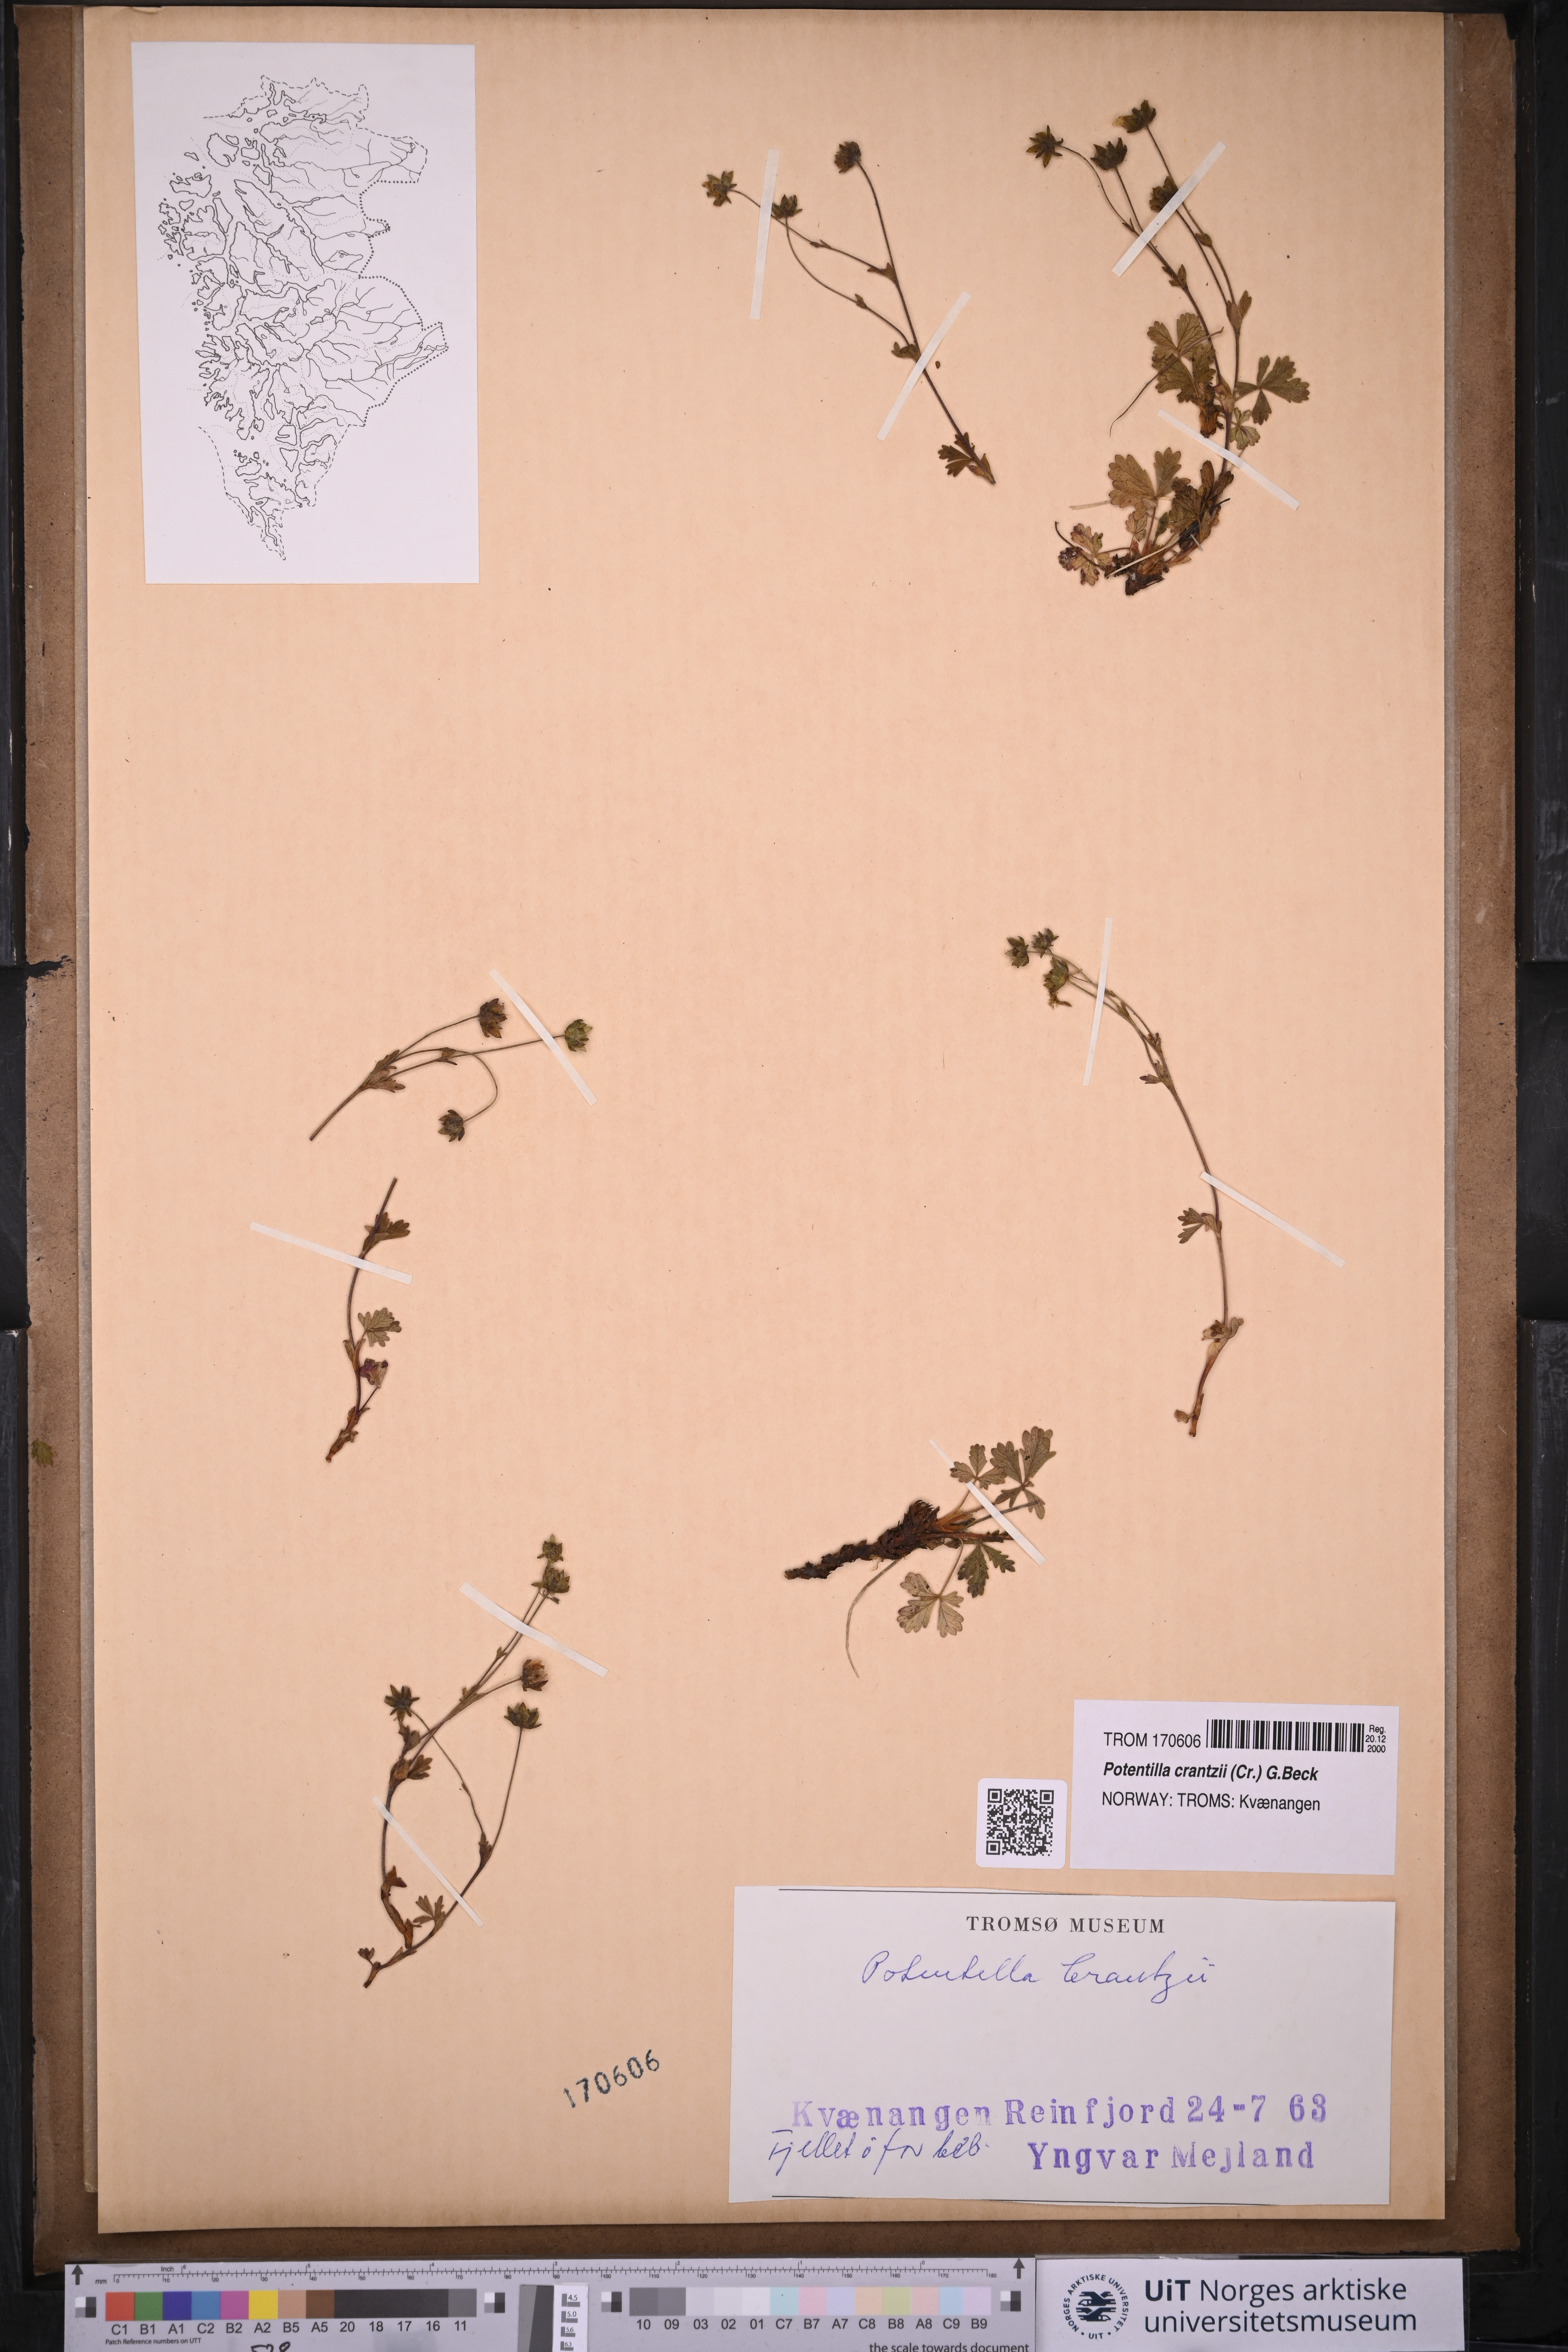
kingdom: Plantae
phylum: Tracheophyta
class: Magnoliopsida
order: Rosales
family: Rosaceae
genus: Potentilla
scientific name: Potentilla crantzii
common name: Alpine cinquefoil
